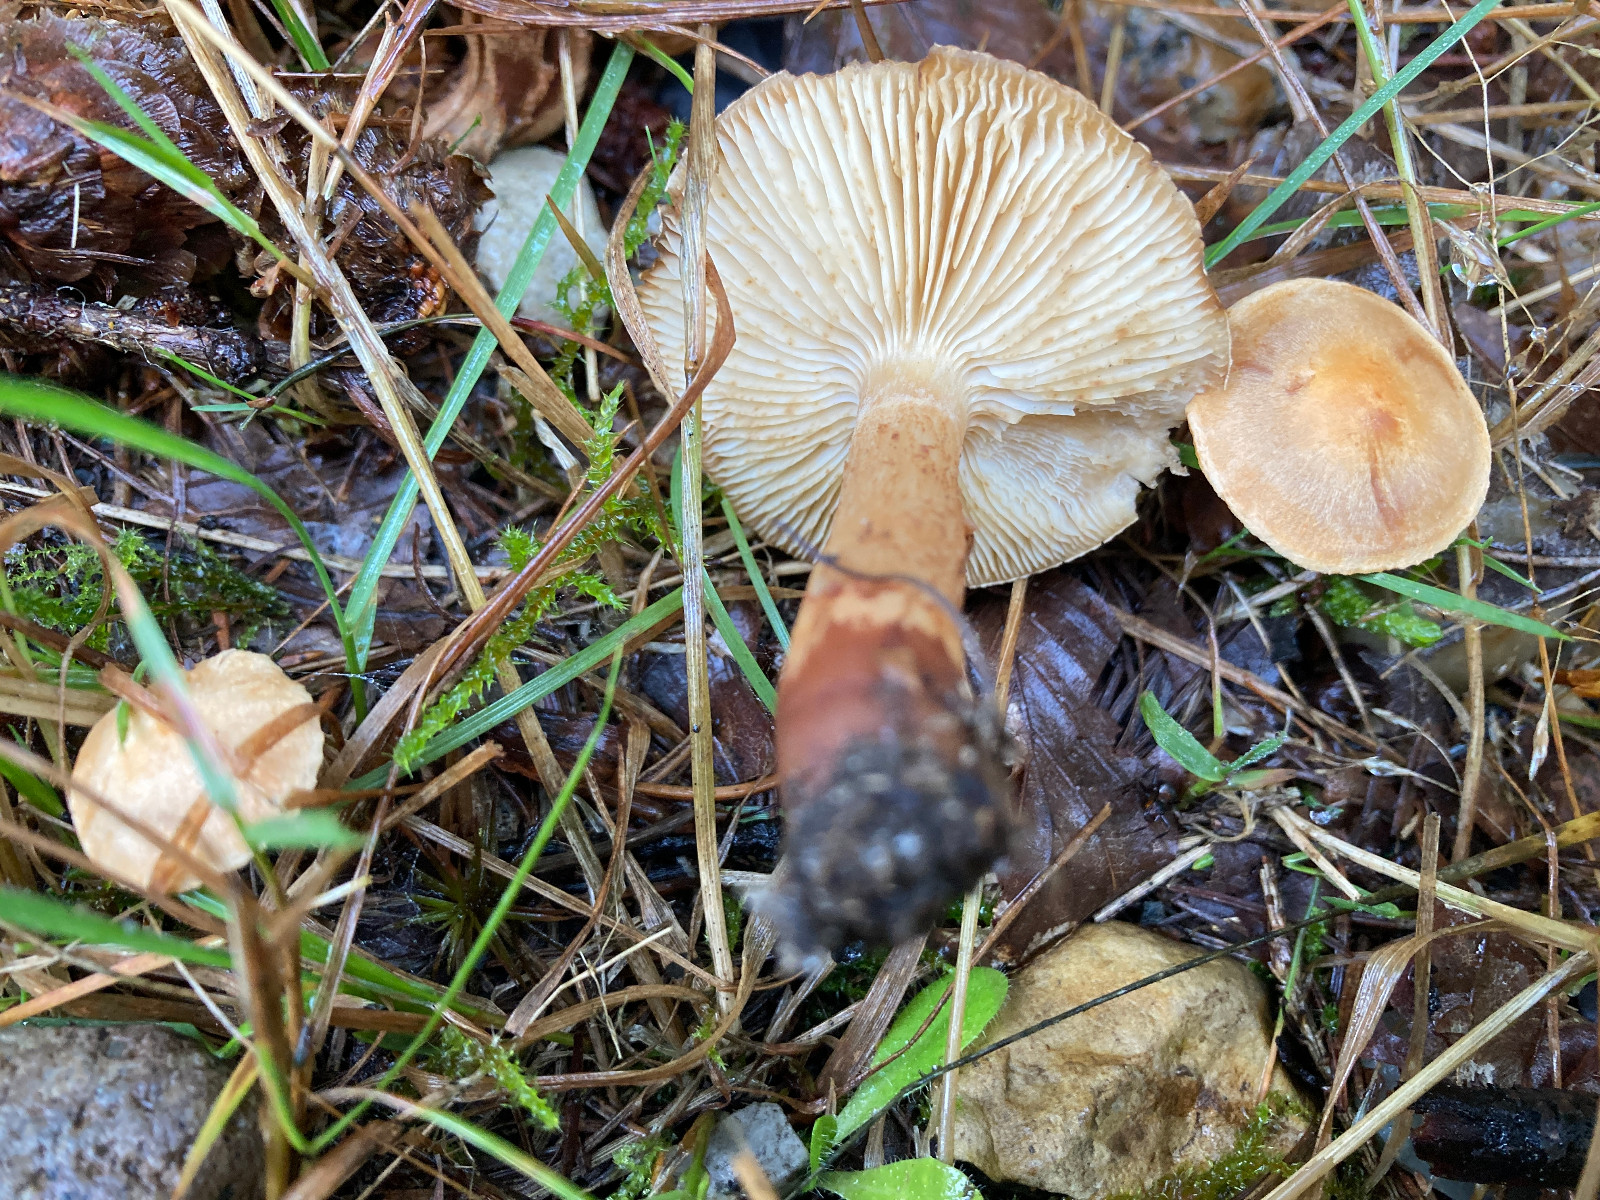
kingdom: Fungi
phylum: Basidiomycota
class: Agaricomycetes
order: Agaricales
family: Tricholomataceae
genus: Tricholoma
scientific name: Tricholoma psammopus
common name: grynstokket ridderhat
